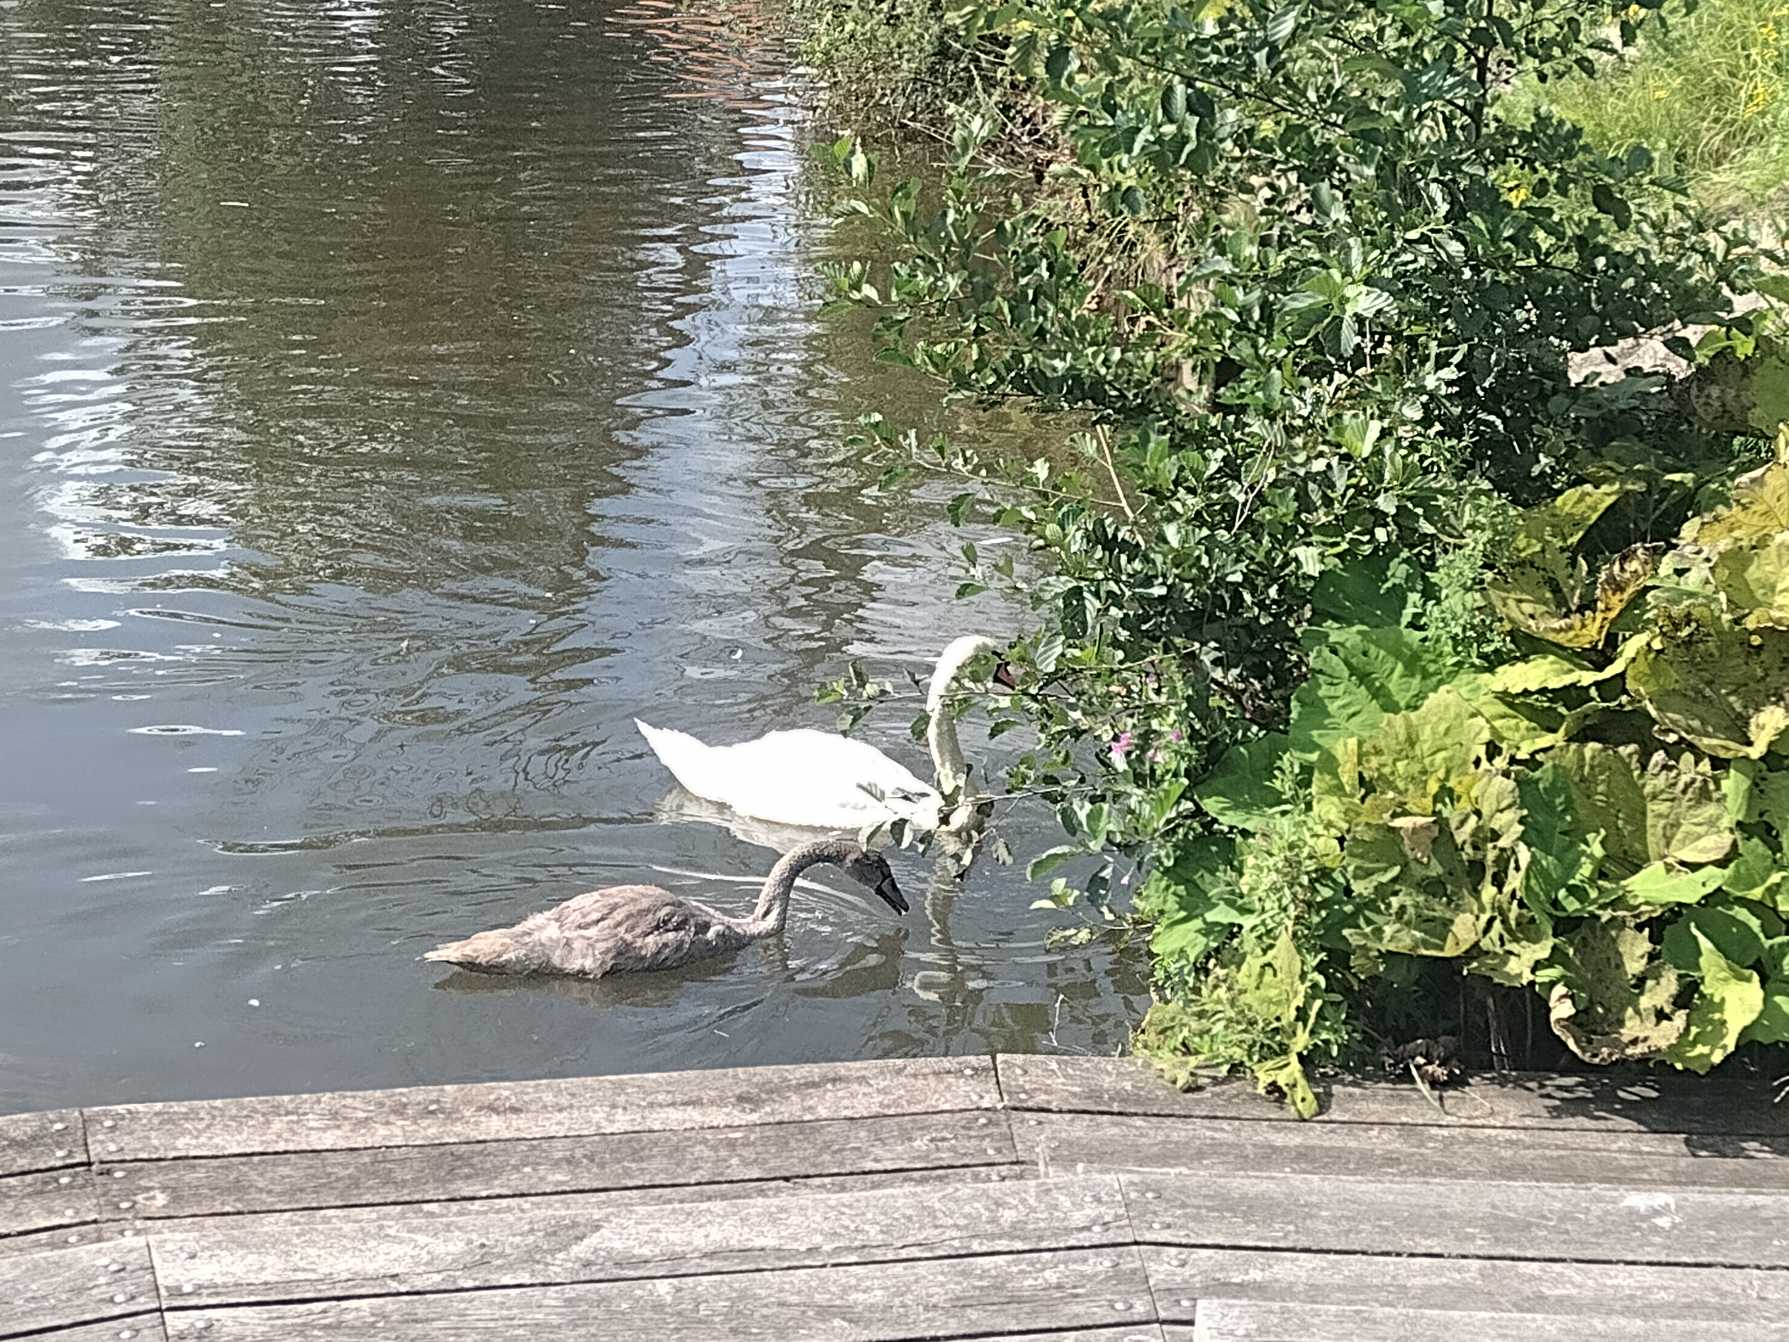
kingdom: Animalia
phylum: Chordata
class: Aves
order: Anseriformes
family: Anatidae
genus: Cygnus
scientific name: Cygnus olor
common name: Knopsvane
